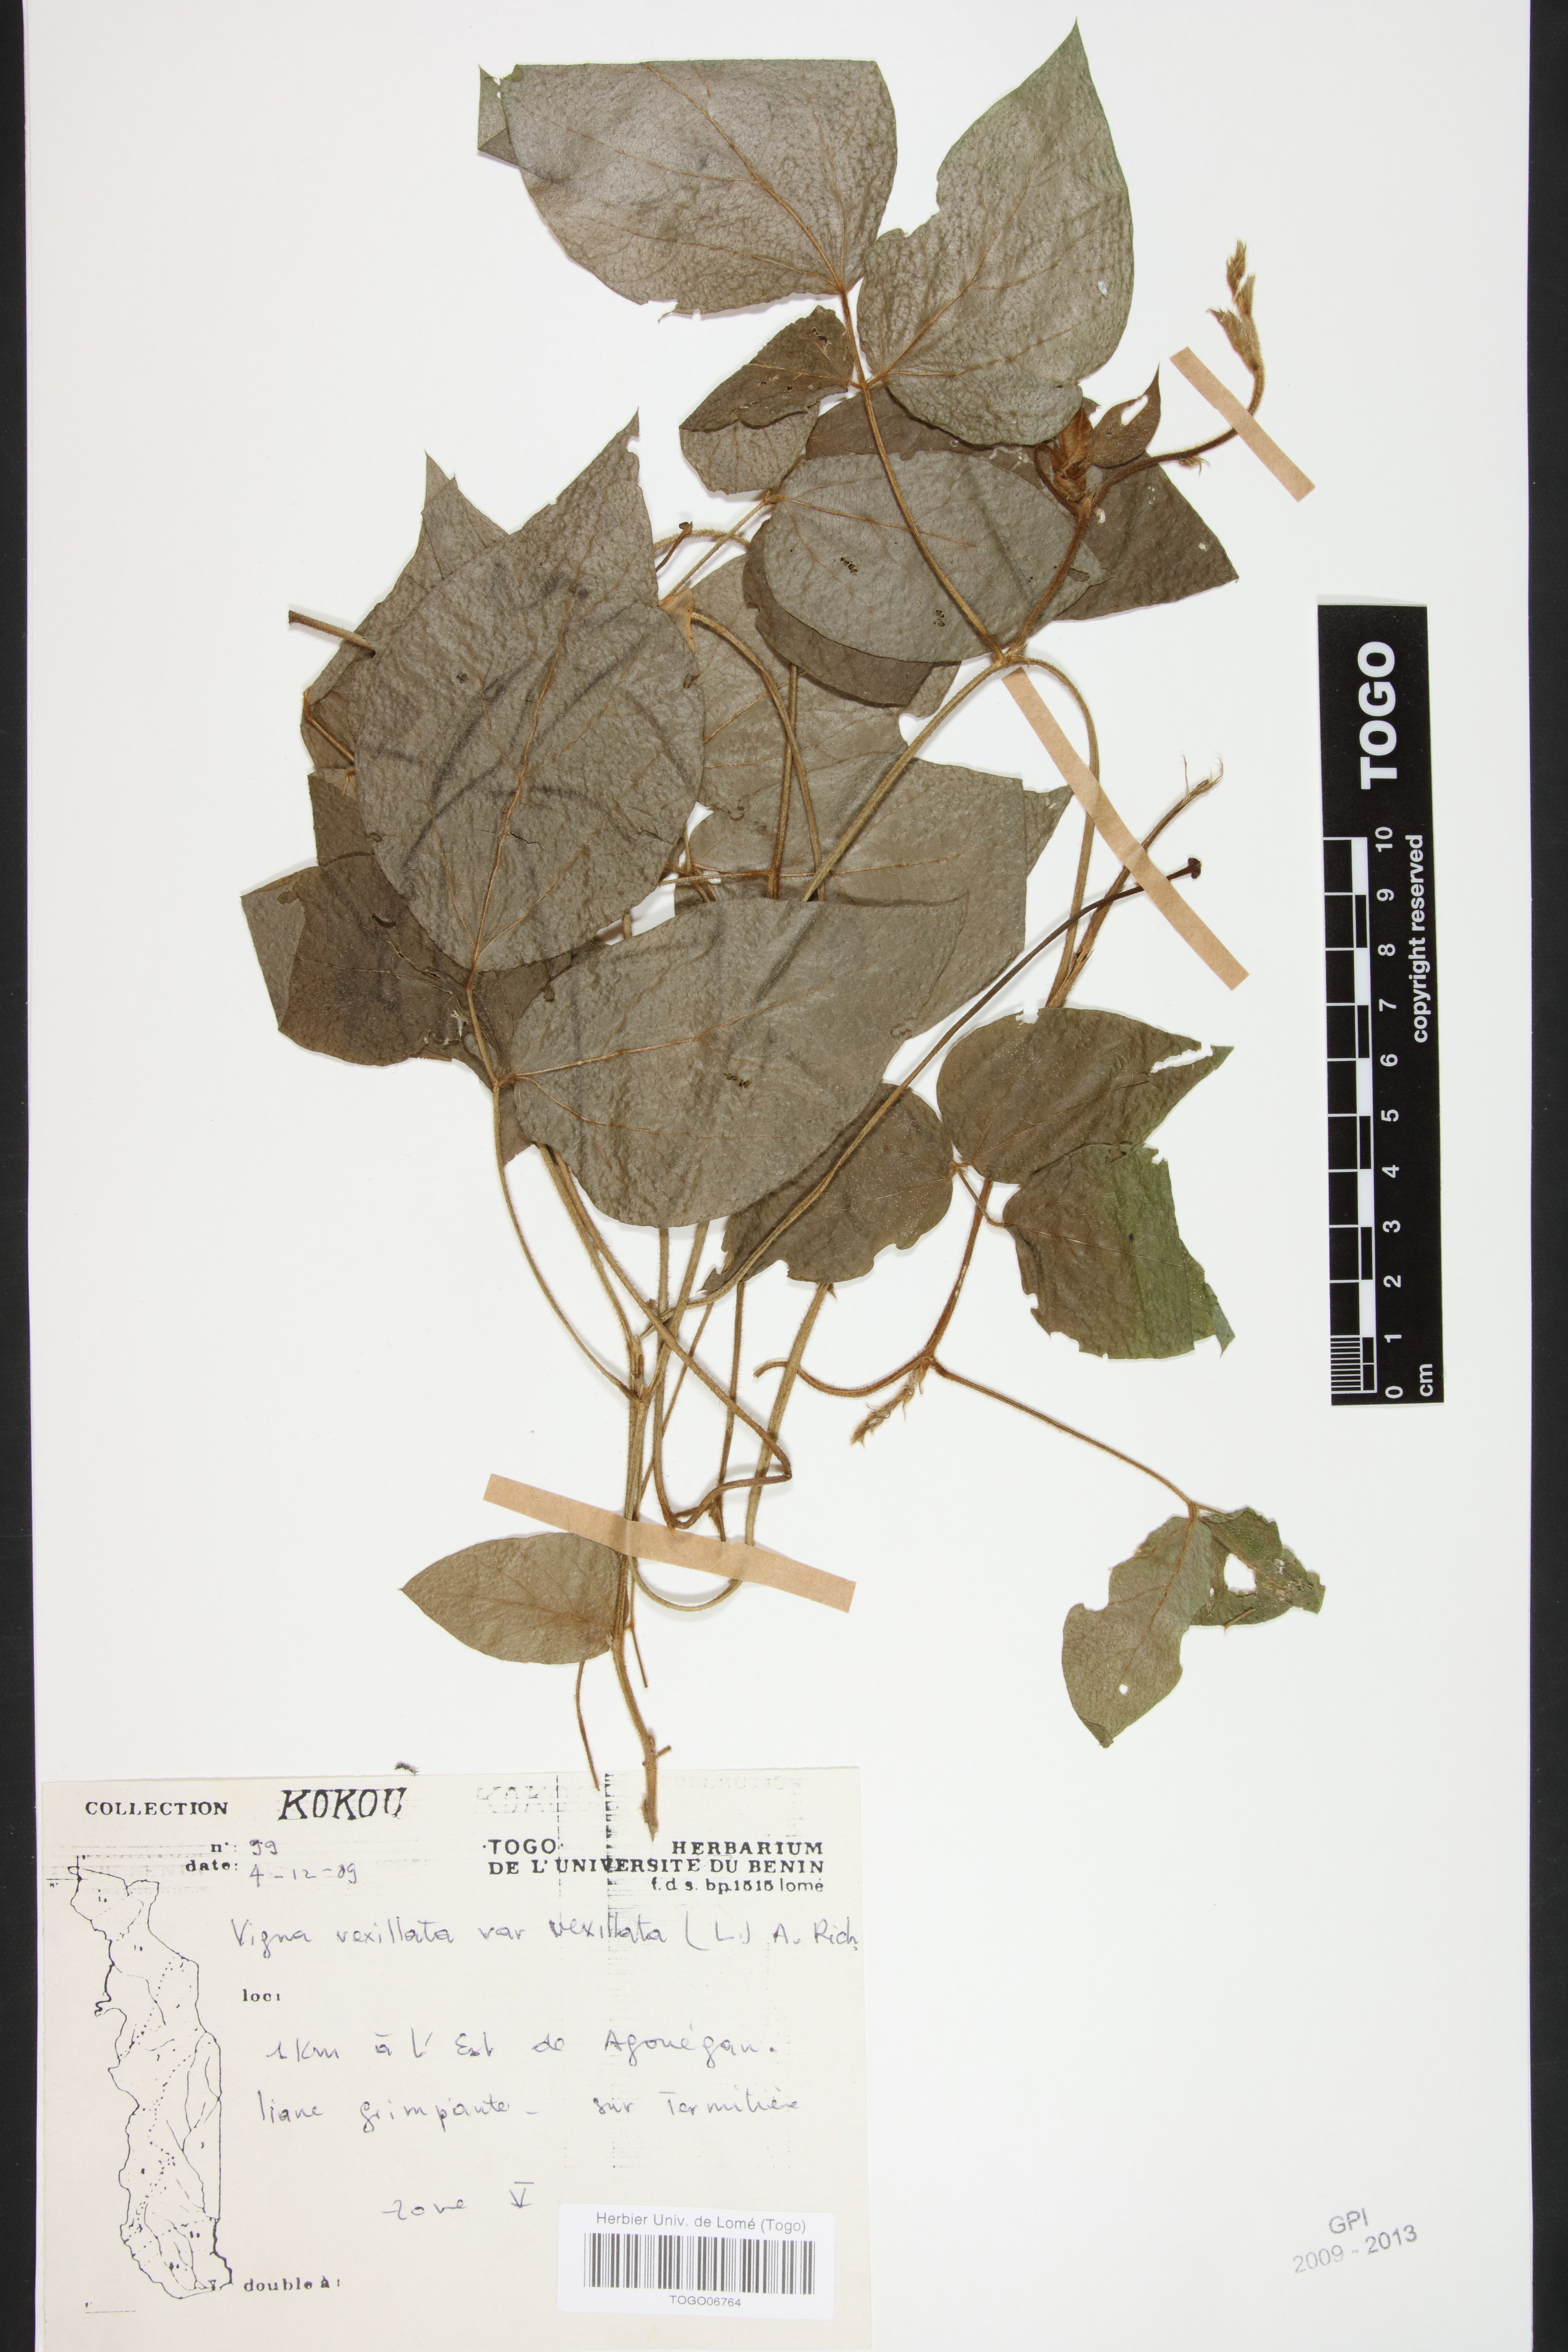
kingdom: Plantae
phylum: Tracheophyta
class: Magnoliopsida
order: Fabales
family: Fabaceae
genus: Vigna
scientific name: Vigna vexillata
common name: Zombi pea
